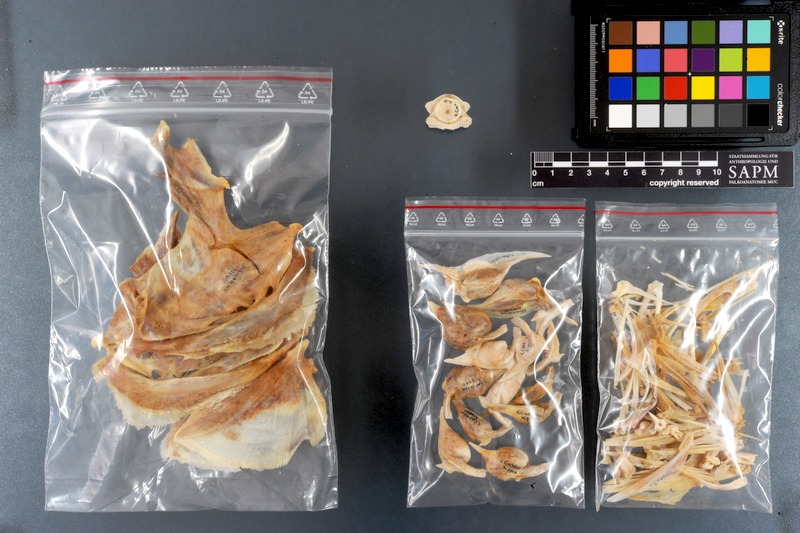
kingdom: Animalia
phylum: Chordata
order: Perciformes
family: Carangidae
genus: Caranx
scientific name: Caranx hippos
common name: Common jack
